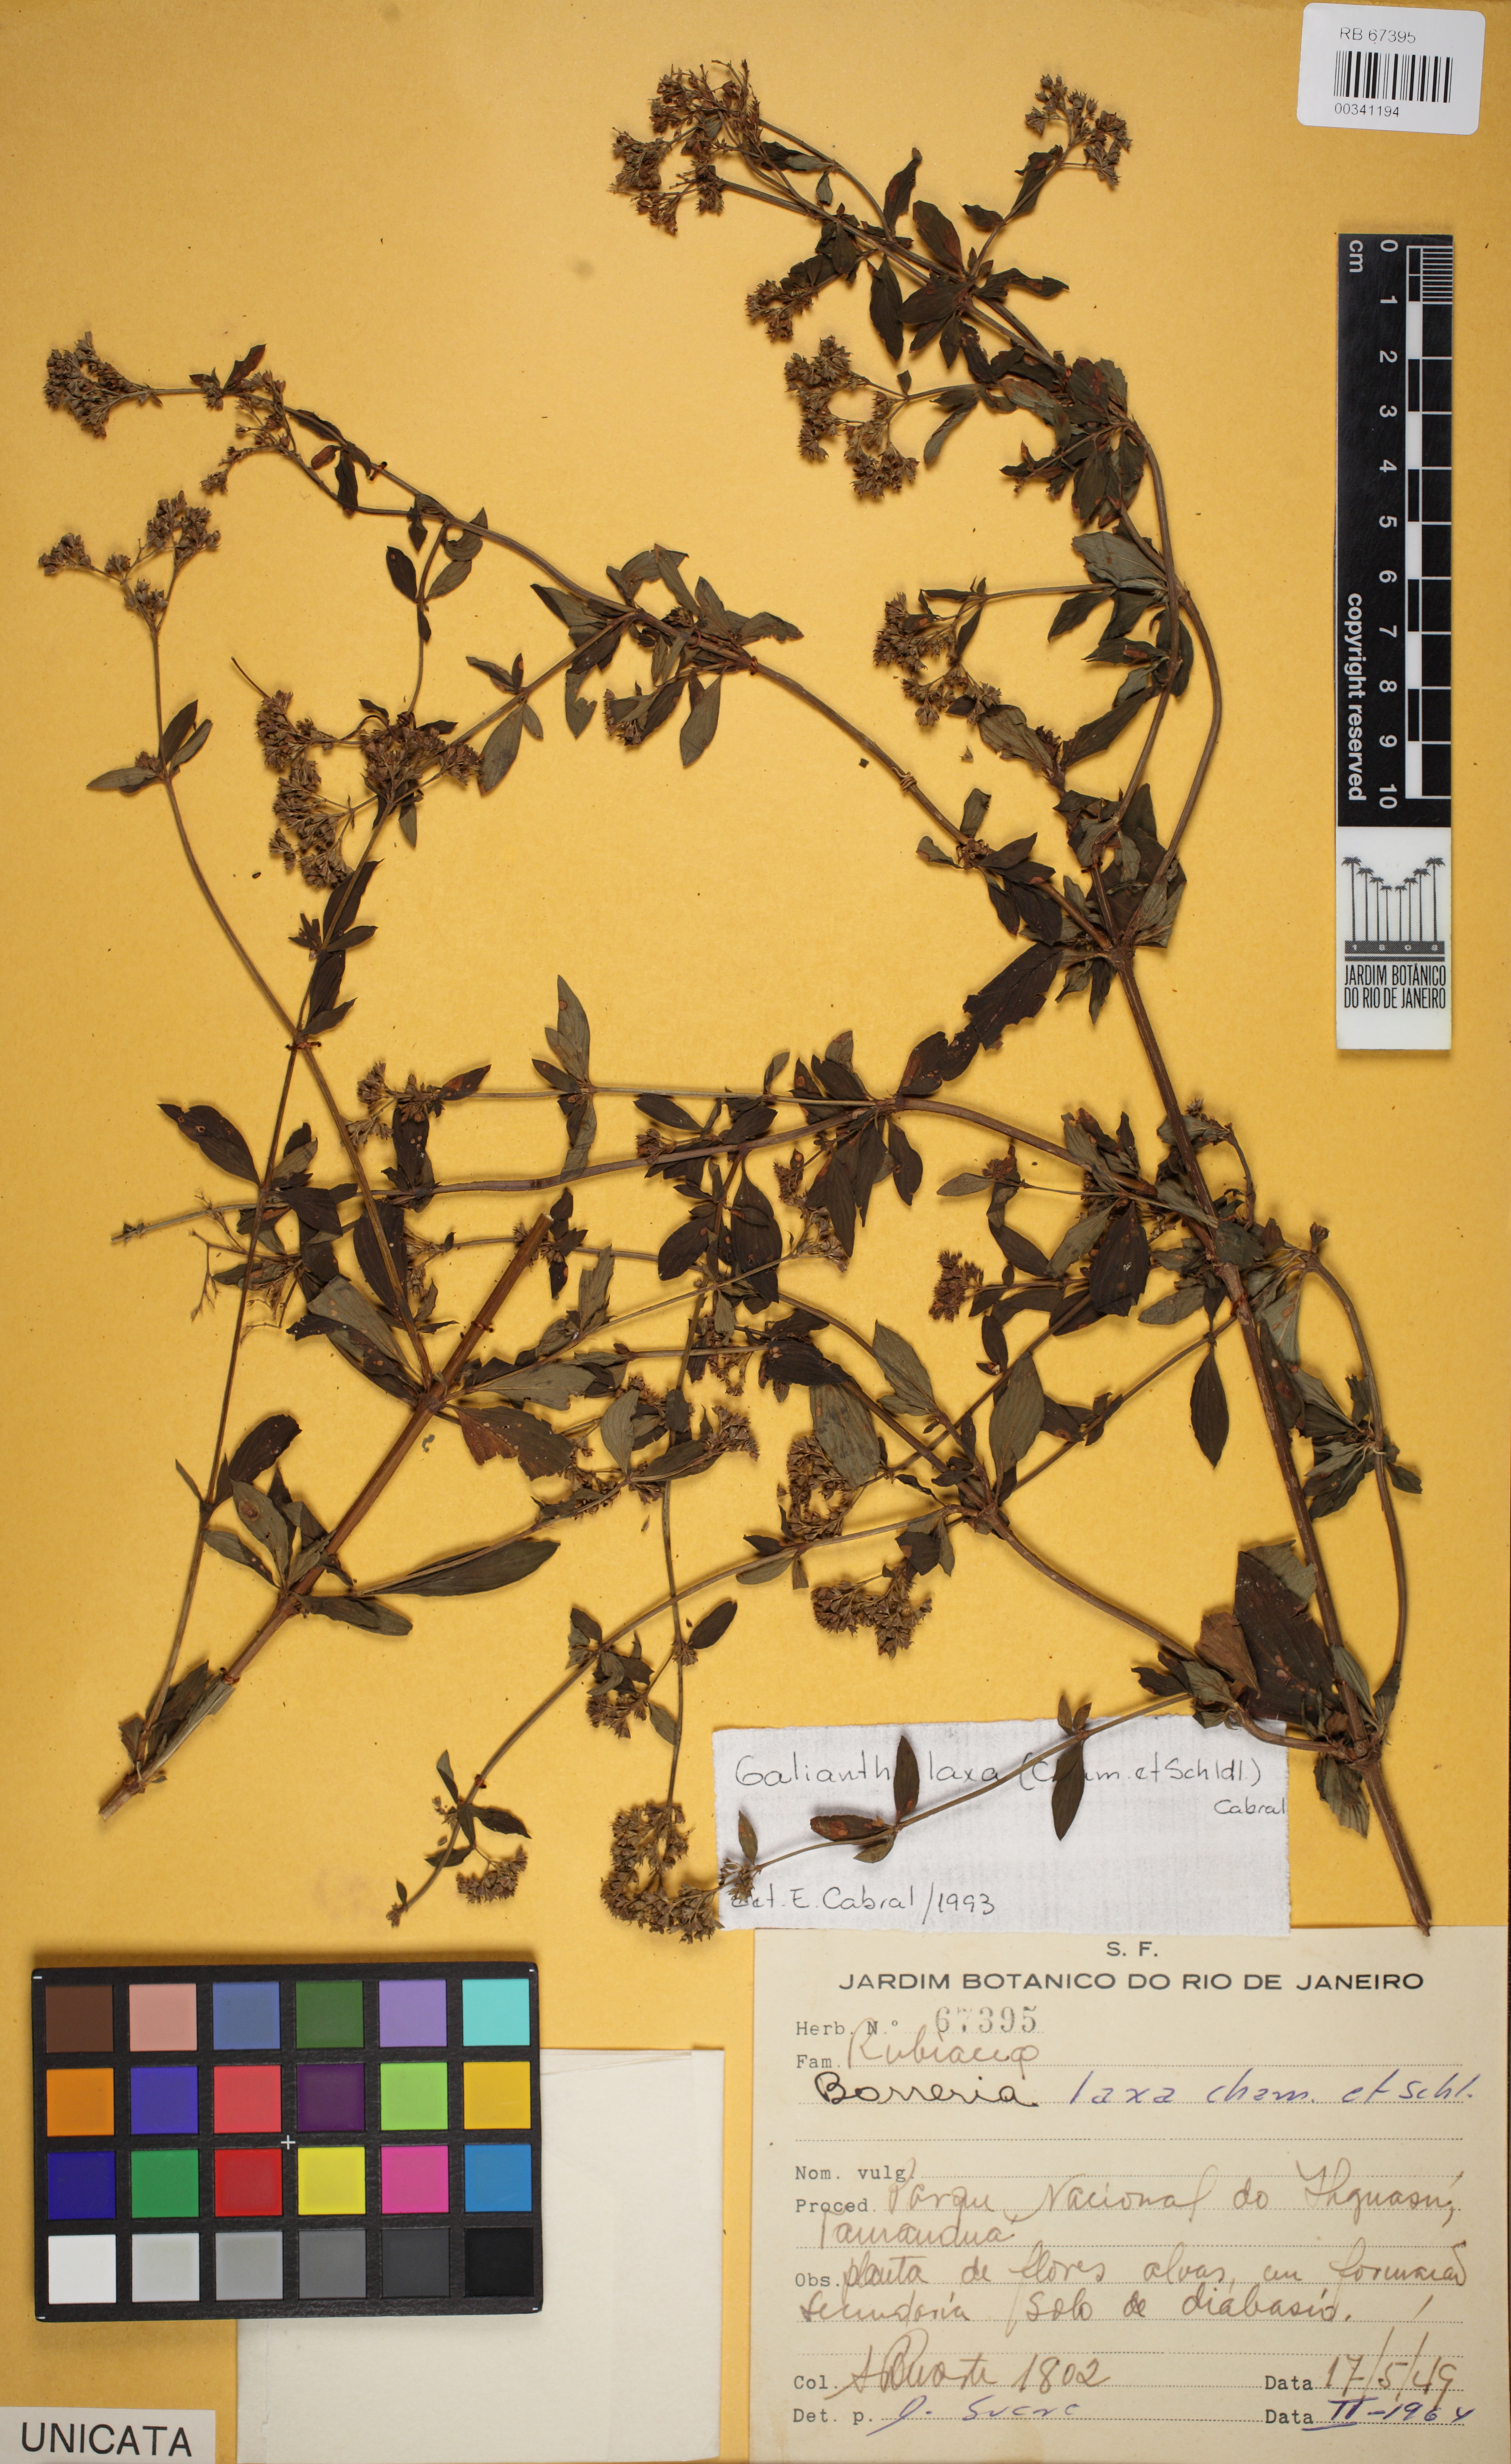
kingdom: Plantae
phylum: Tracheophyta
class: Magnoliopsida
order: Gentianales
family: Rubiaceae
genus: Galianthe
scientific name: Galianthe laxa
